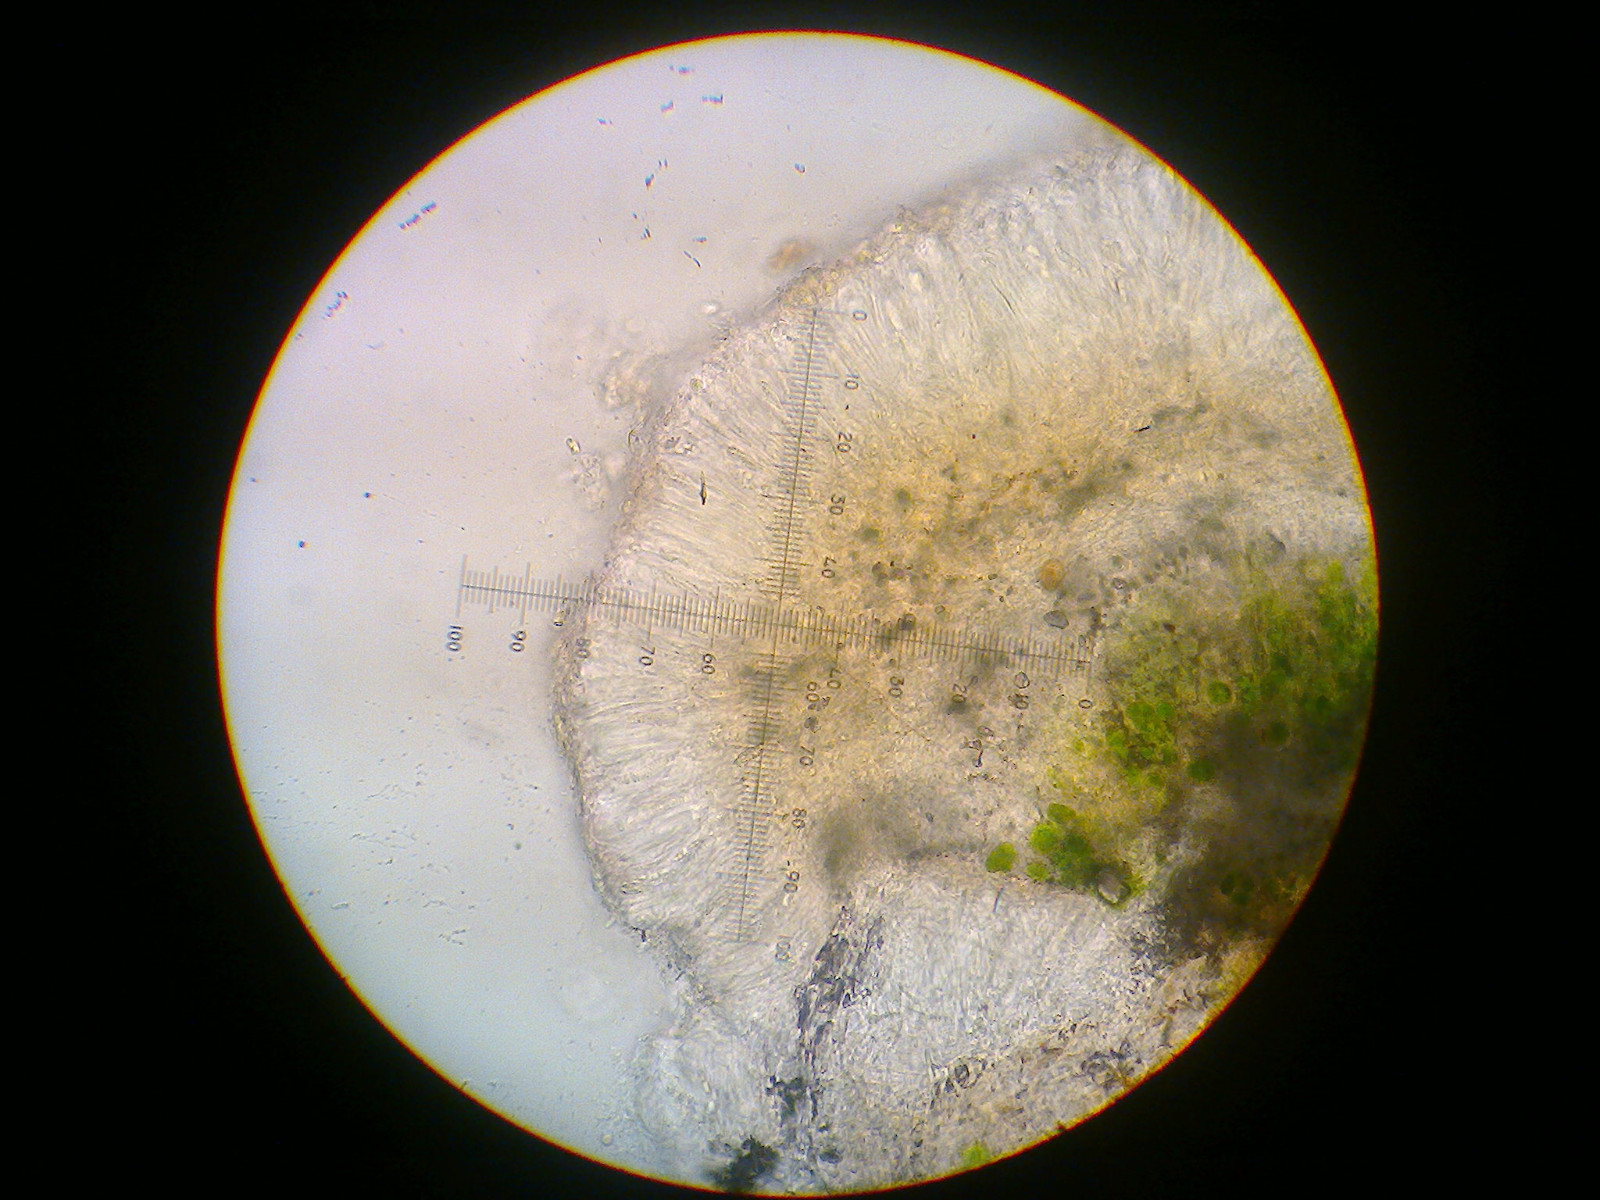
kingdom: Fungi
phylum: Ascomycota
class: Lecanoromycetes
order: Lecanorales
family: Byssolomataceae
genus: Fellhanera
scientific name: Fellhanera subtilis
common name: nåle-tallerkenlav
